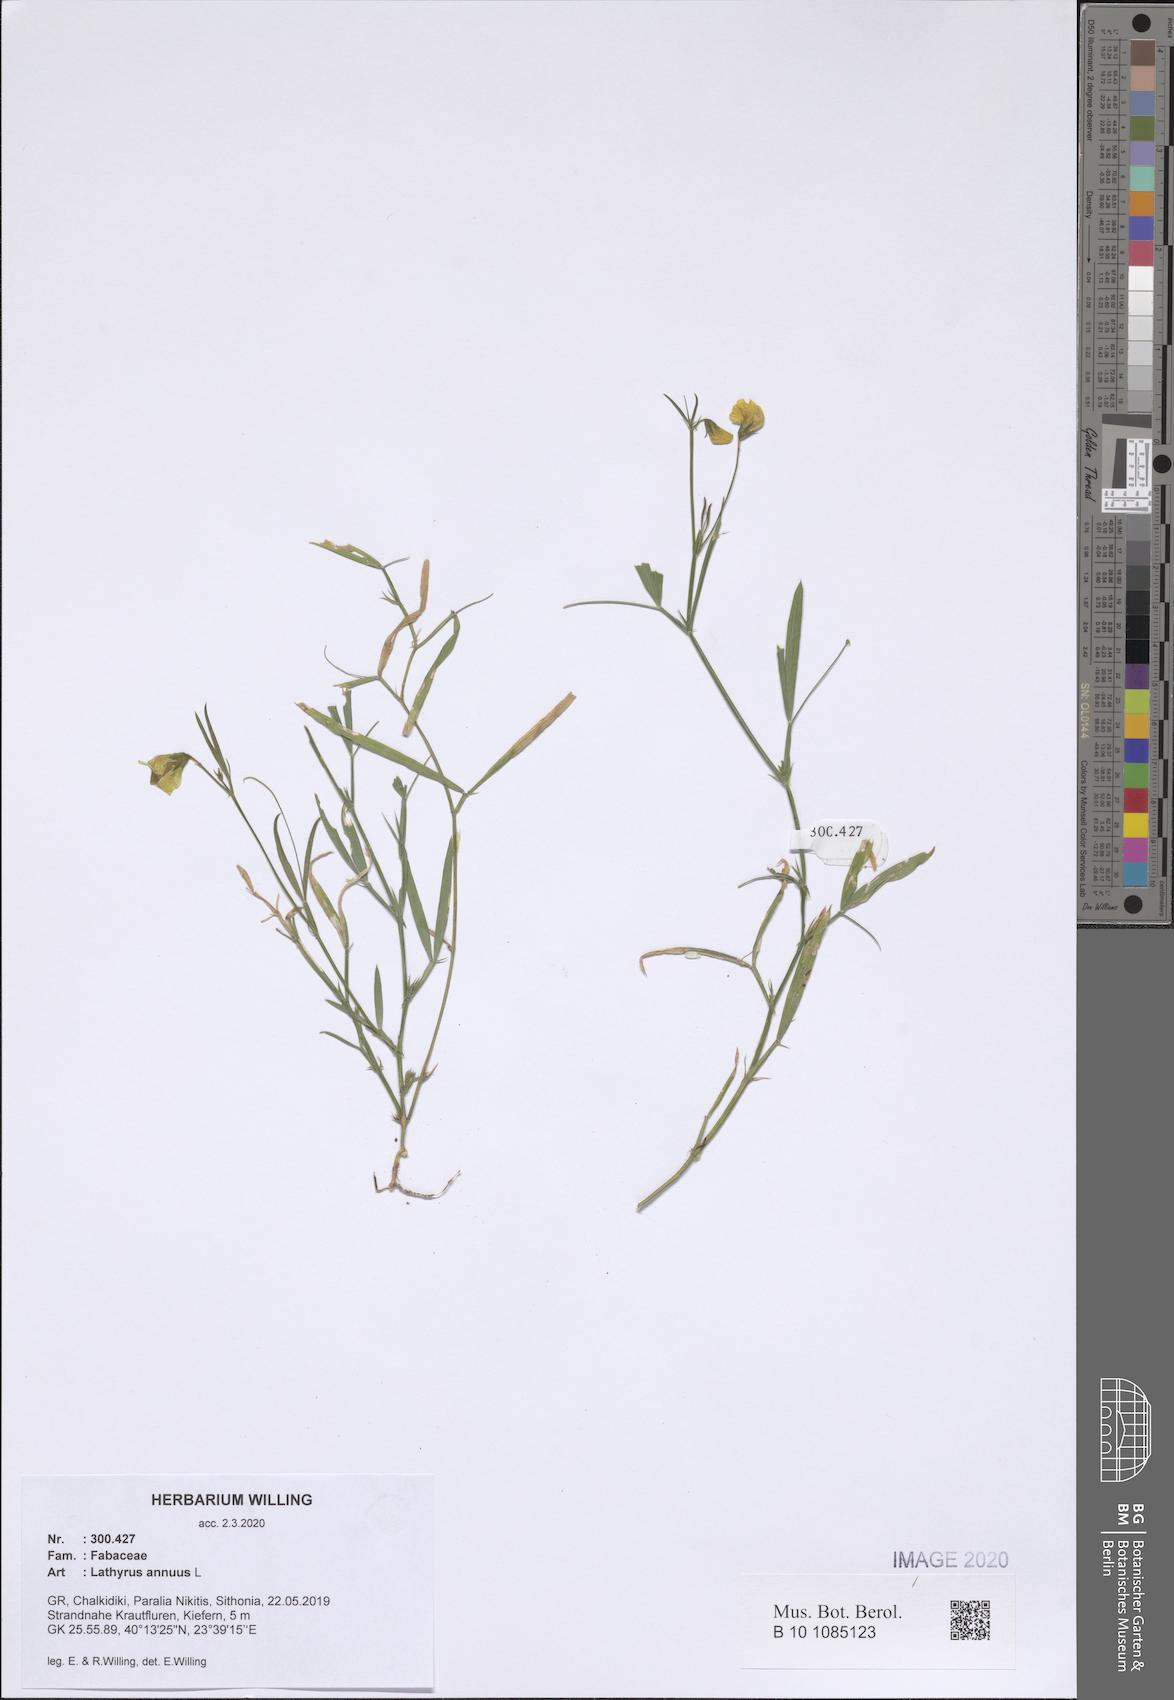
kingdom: Plantae
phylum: Tracheophyta
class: Magnoliopsida
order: Fabales
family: Fabaceae
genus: Lathyrus
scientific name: Lathyrus annuus
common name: Fodder pea
